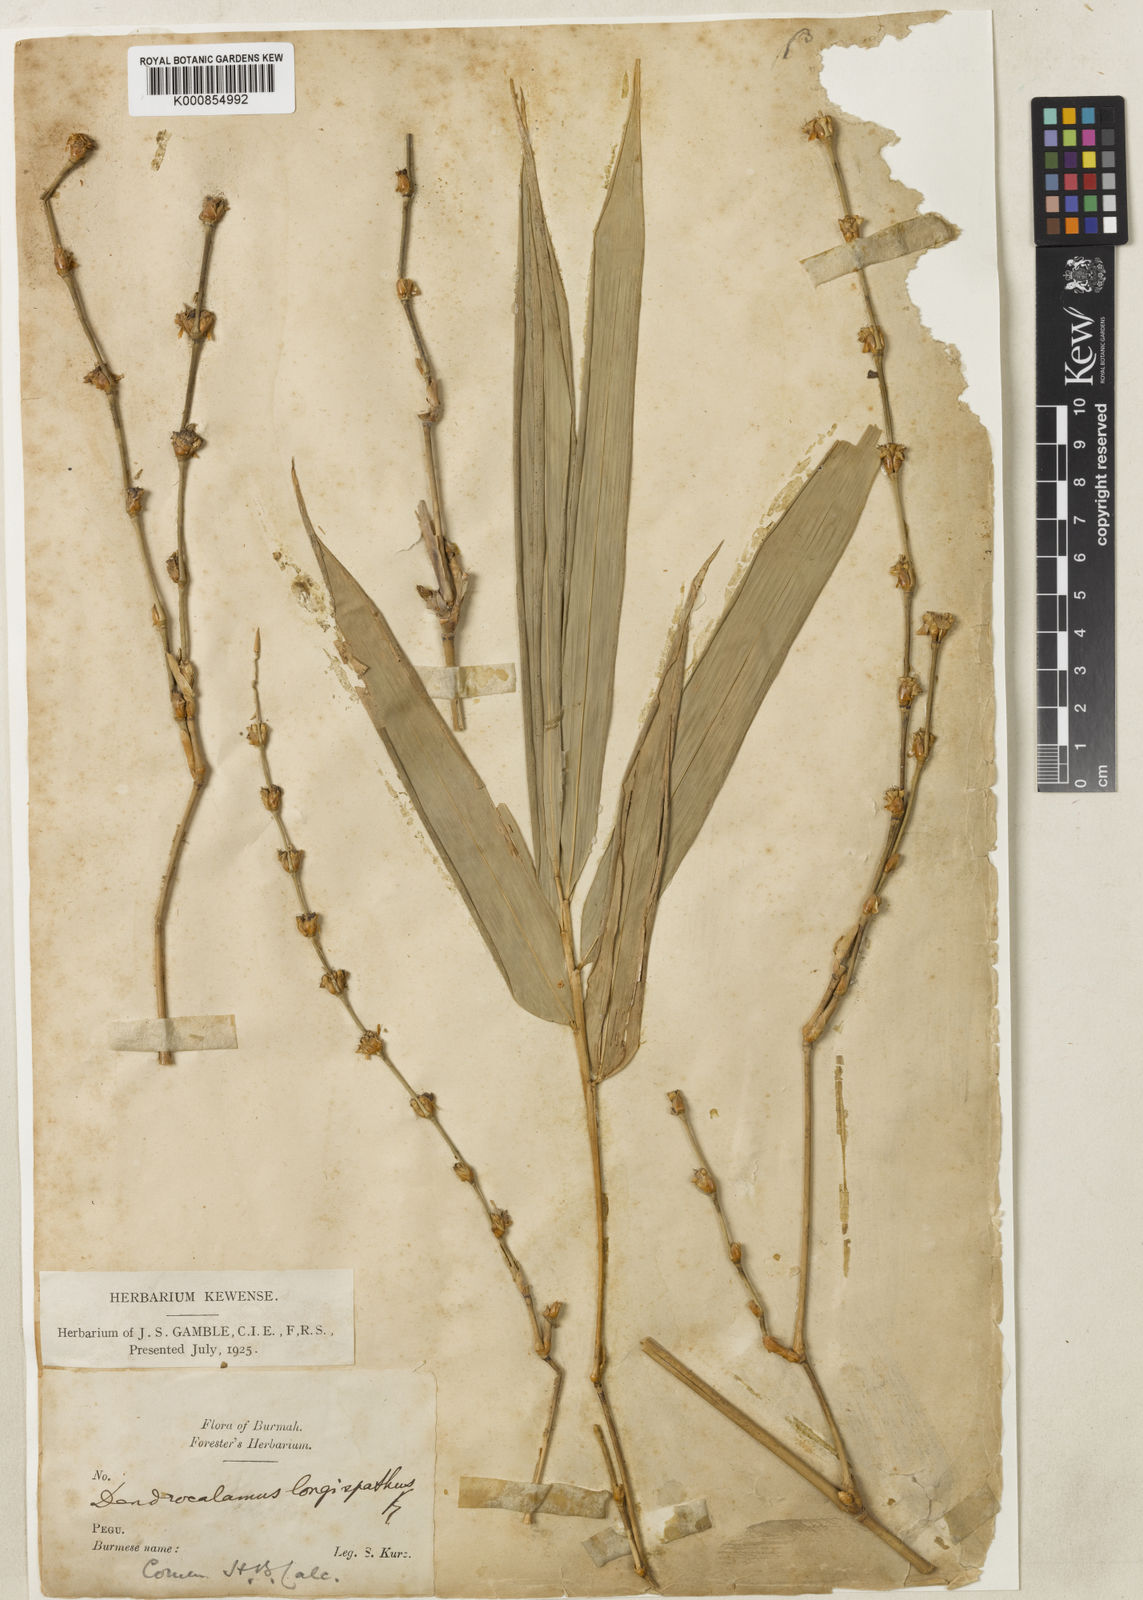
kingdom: Plantae
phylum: Tracheophyta
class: Liliopsida
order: Poales
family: Poaceae
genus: Dendrocalamus
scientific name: Dendrocalamus longispathus
